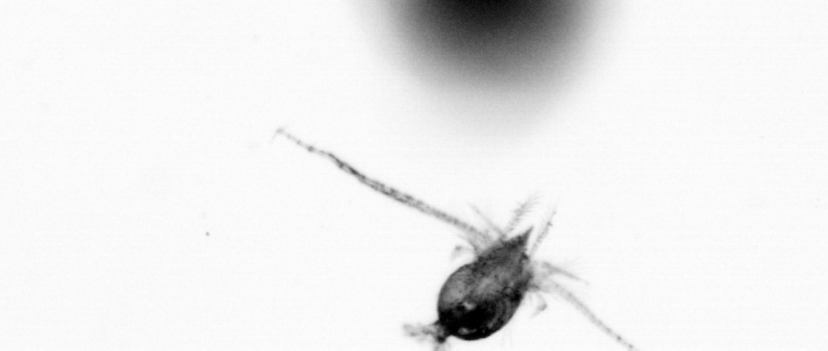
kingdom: Animalia
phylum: Arthropoda
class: Copepoda
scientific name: Copepoda
